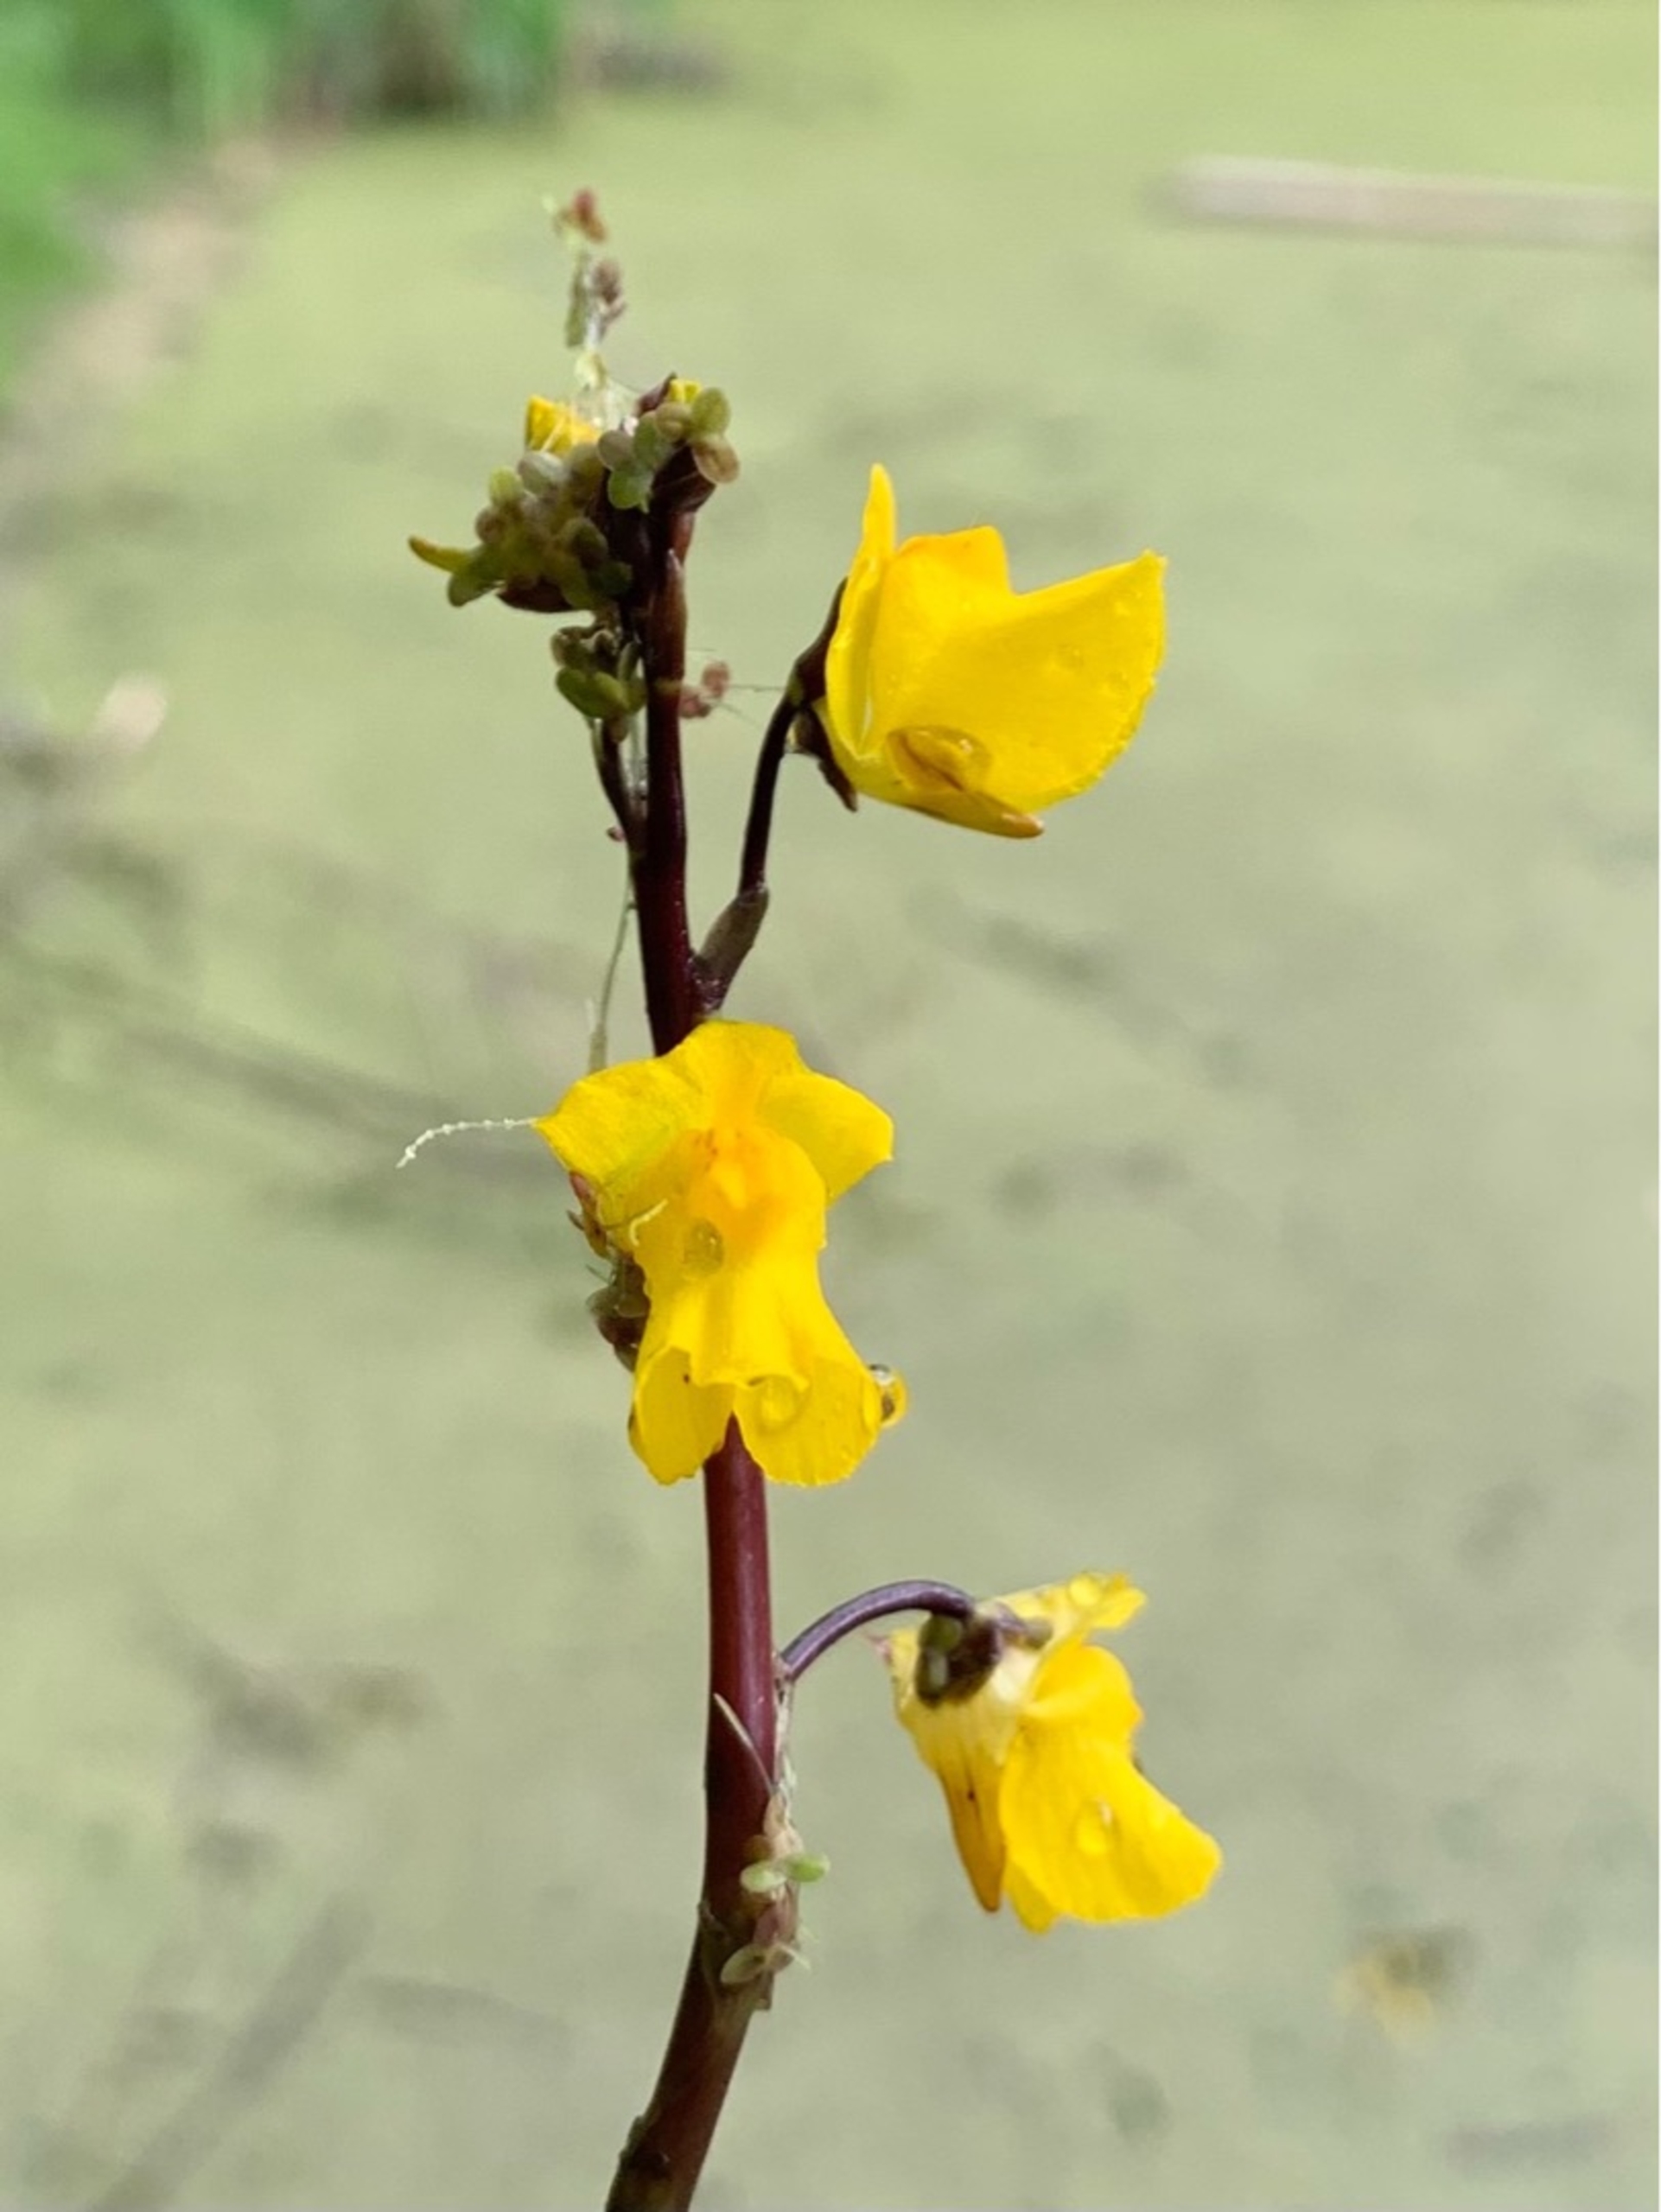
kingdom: Plantae
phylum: Tracheophyta
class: Magnoliopsida
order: Lamiales
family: Lentibulariaceae
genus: Utricularia
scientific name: Utricularia vulgaris
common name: Almindelig blærerod
